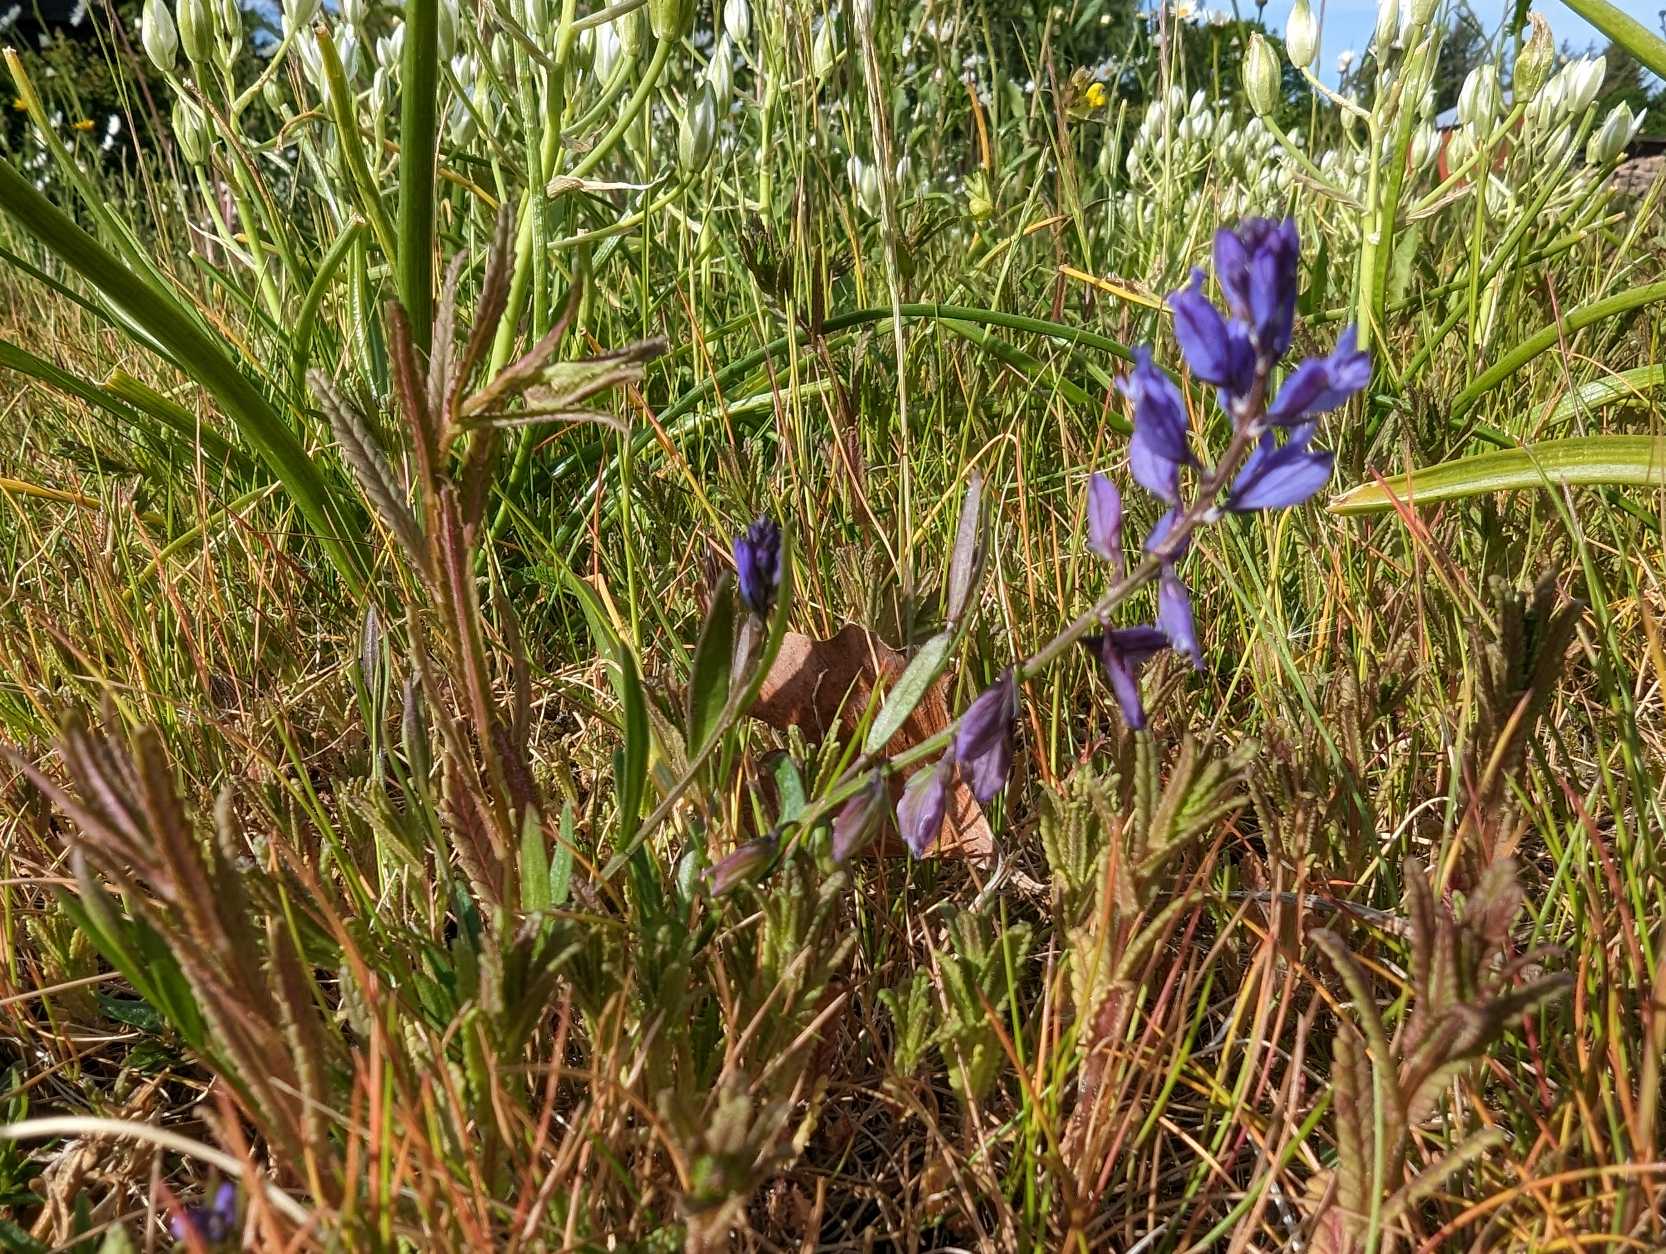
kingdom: Plantae
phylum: Tracheophyta
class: Magnoliopsida
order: Fabales
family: Polygalaceae
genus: Polygala
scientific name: Polygala vulgaris
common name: Almindelig mælkeurt
